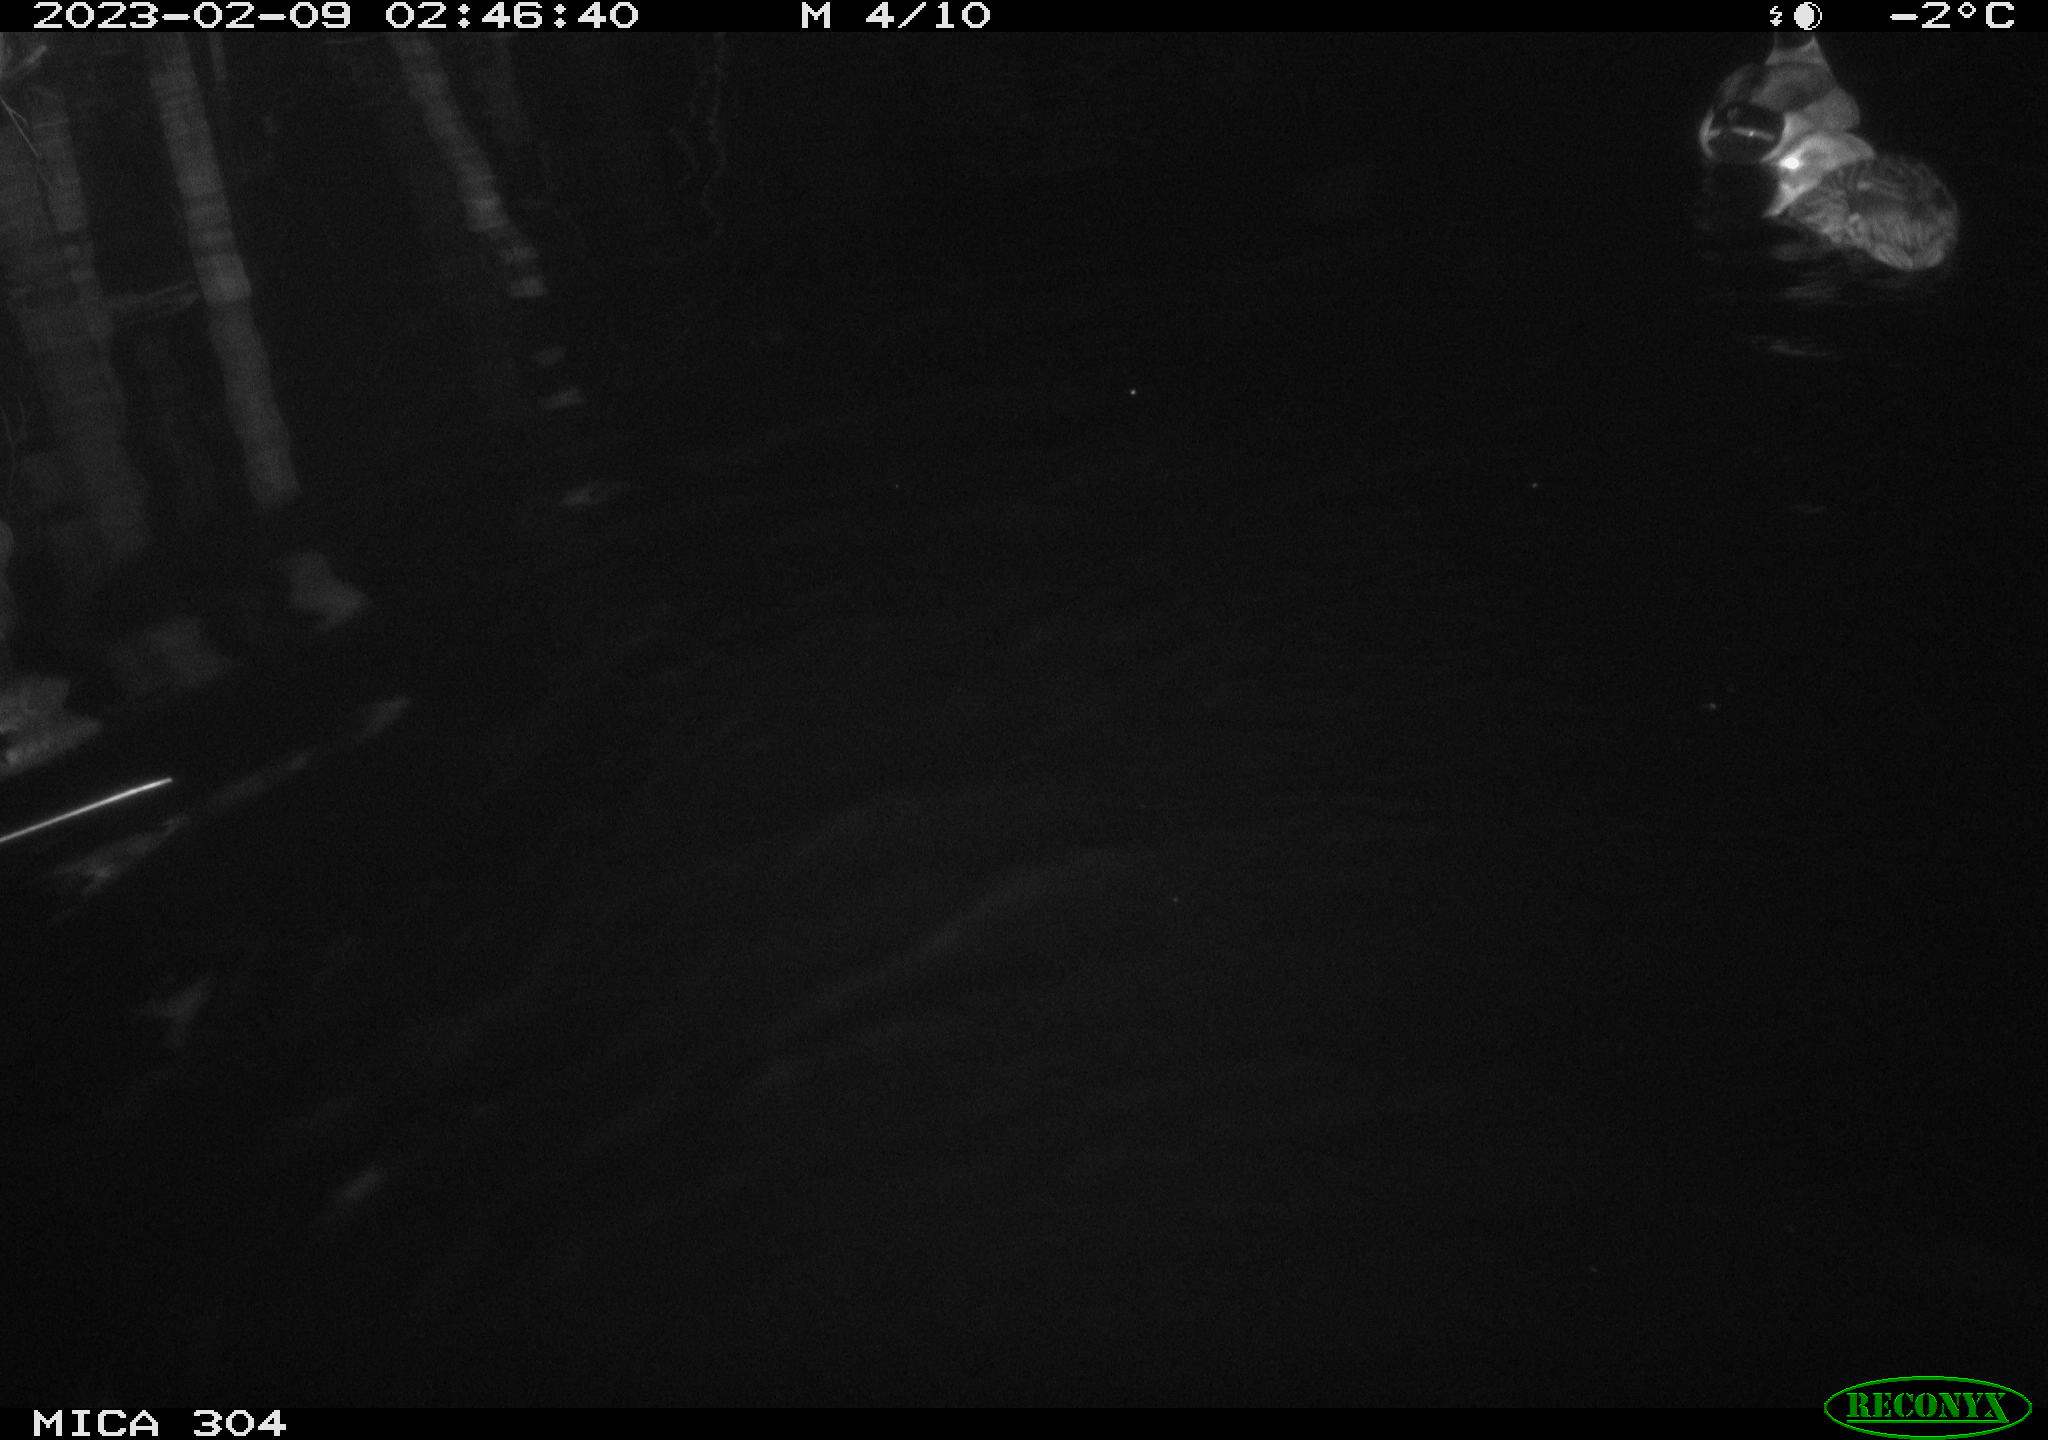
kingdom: Animalia
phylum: Chordata
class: Aves
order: Anseriformes
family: Anatidae
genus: Anas
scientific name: Anas
